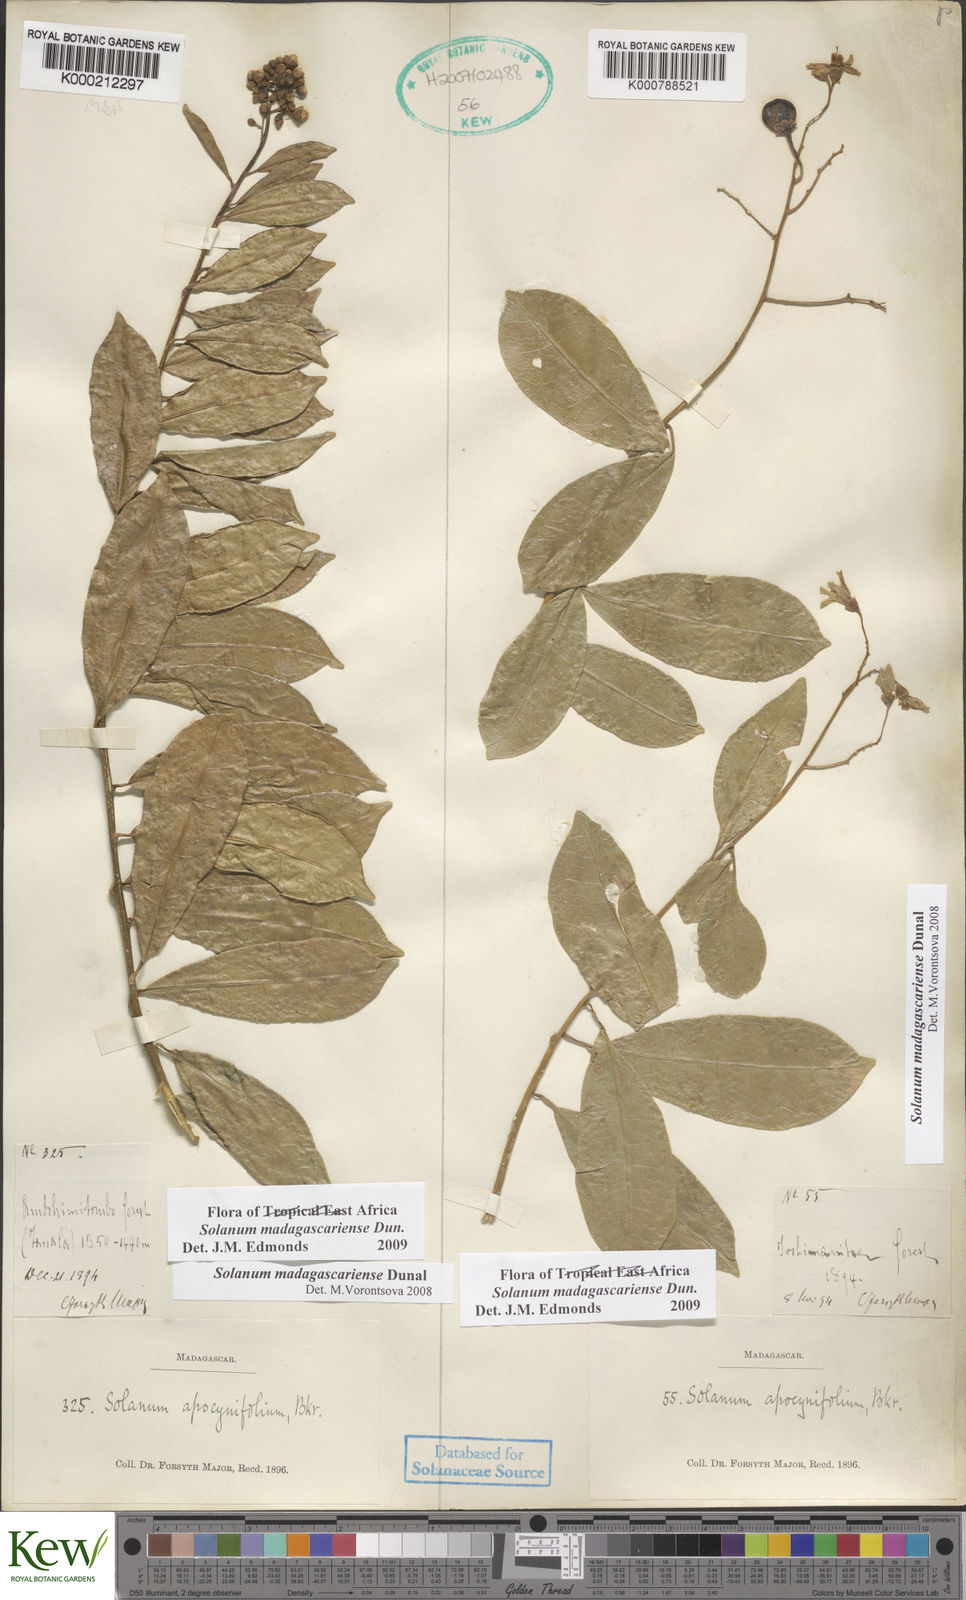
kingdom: Plantae
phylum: Tracheophyta
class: Magnoliopsida
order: Solanales
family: Solanaceae
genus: Solanum
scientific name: Solanum madagascariense
